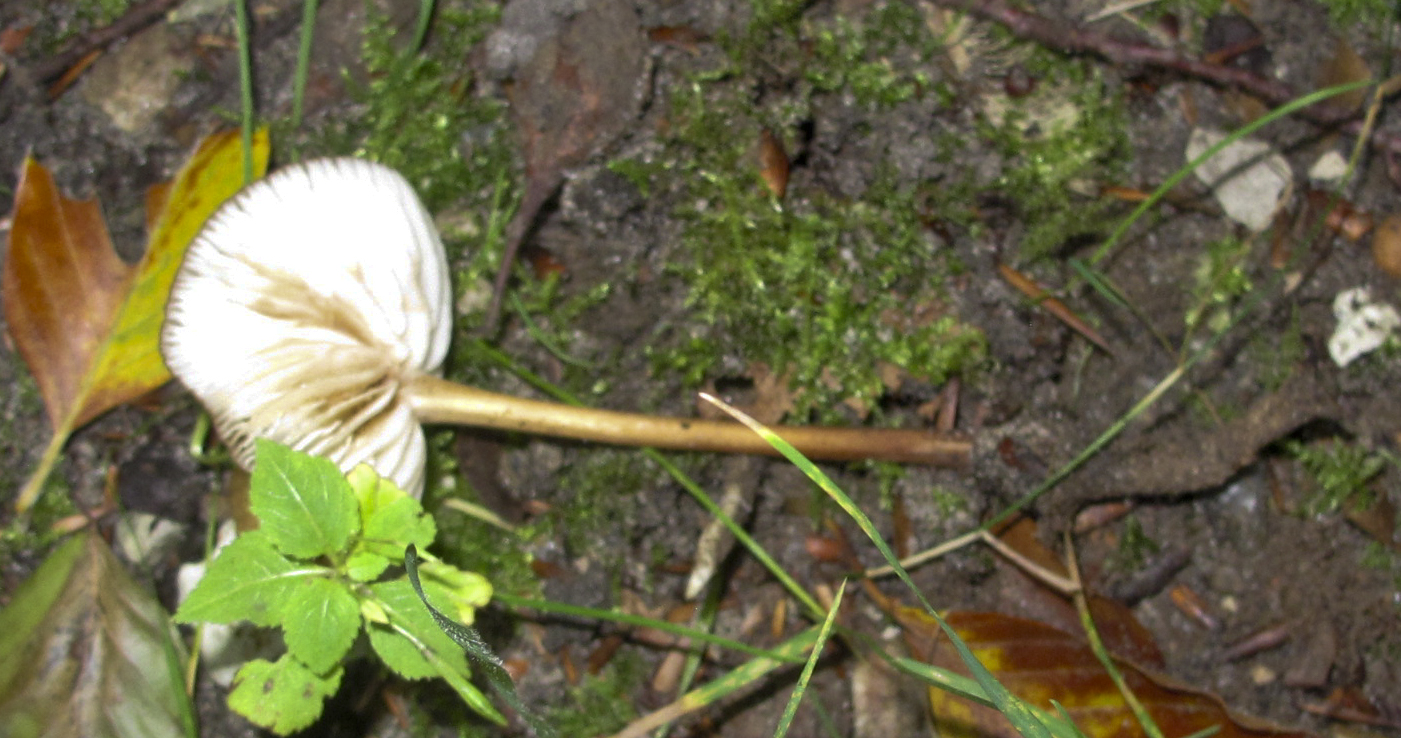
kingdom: Fungi
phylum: Basidiomycota
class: Agaricomycetes
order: Agaricales
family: Physalacriaceae
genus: Hymenopellis
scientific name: Hymenopellis radicata
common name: almindelig pælerodshat
